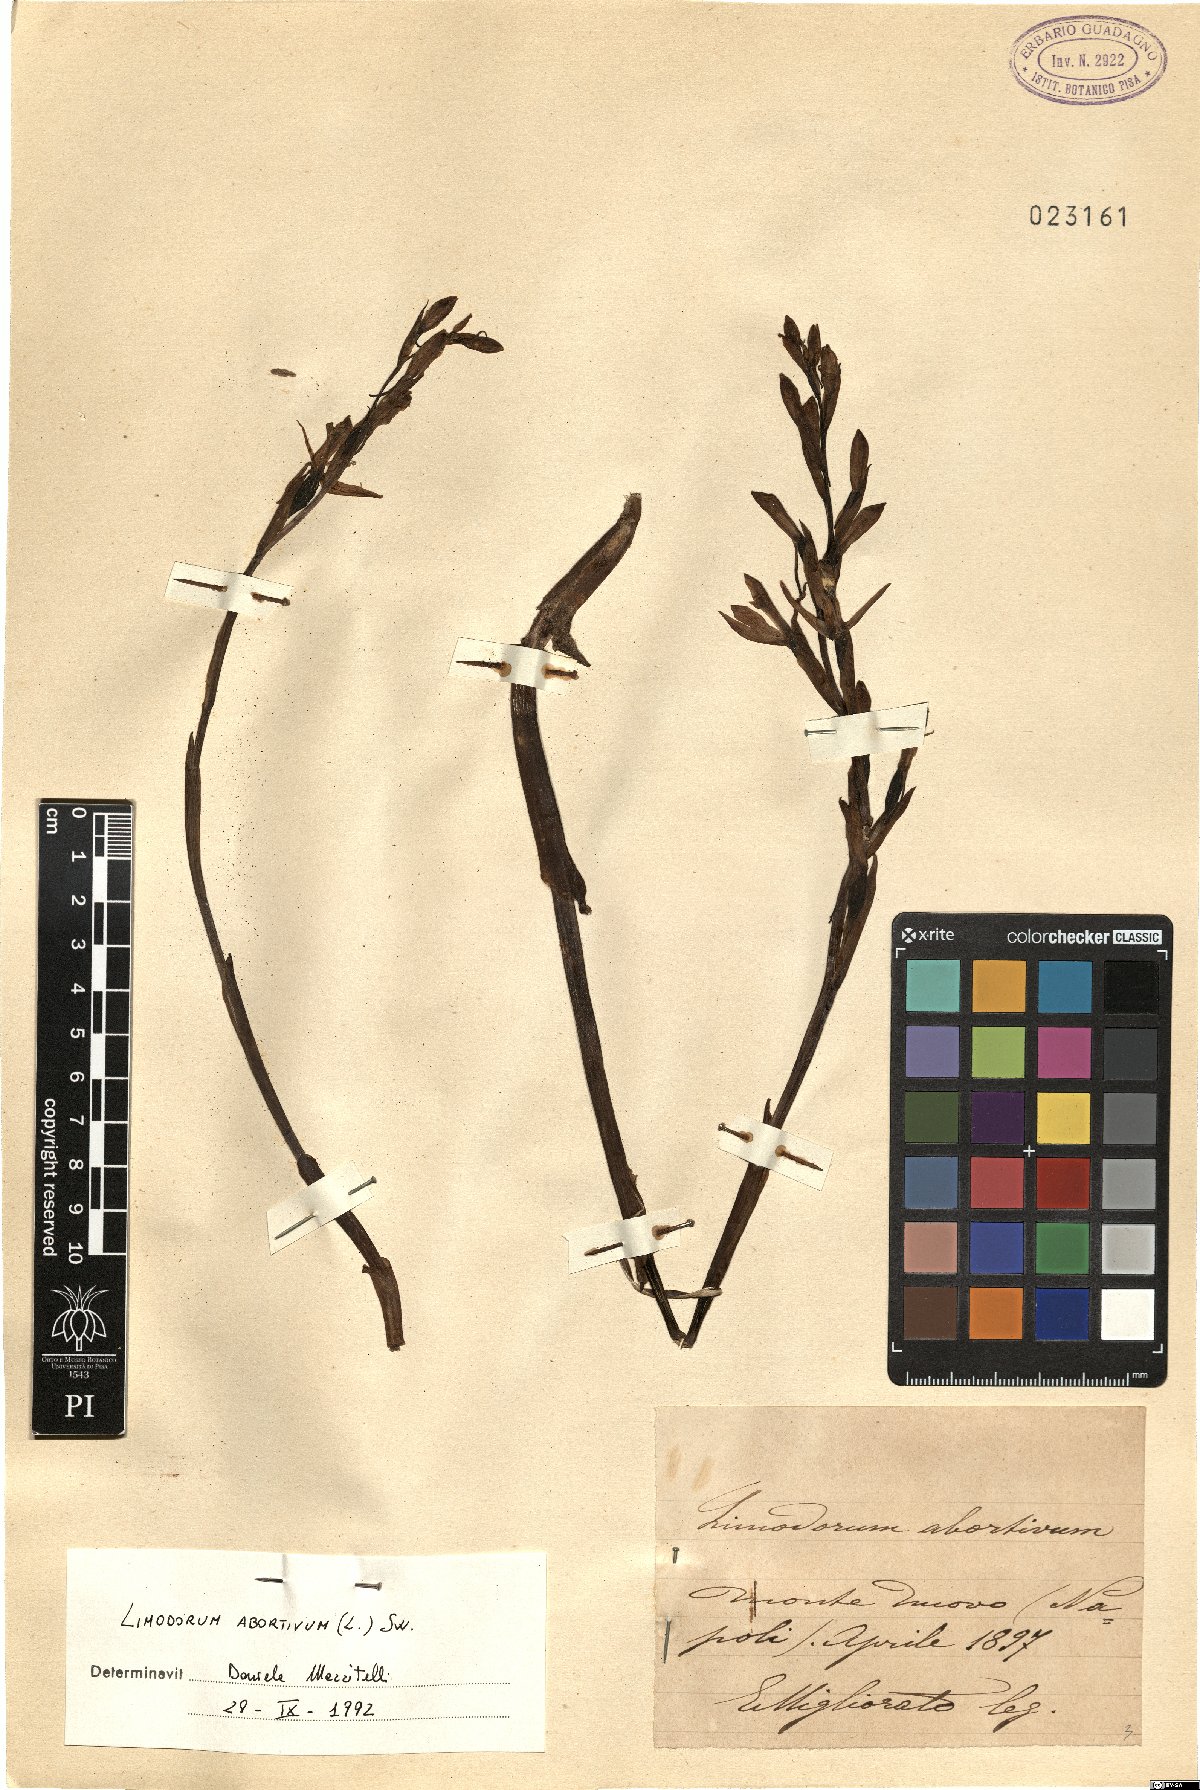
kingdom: Plantae
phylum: Tracheophyta
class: Liliopsida
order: Asparagales
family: Orchidaceae
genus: Limodorum
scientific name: Limodorum abortivum
